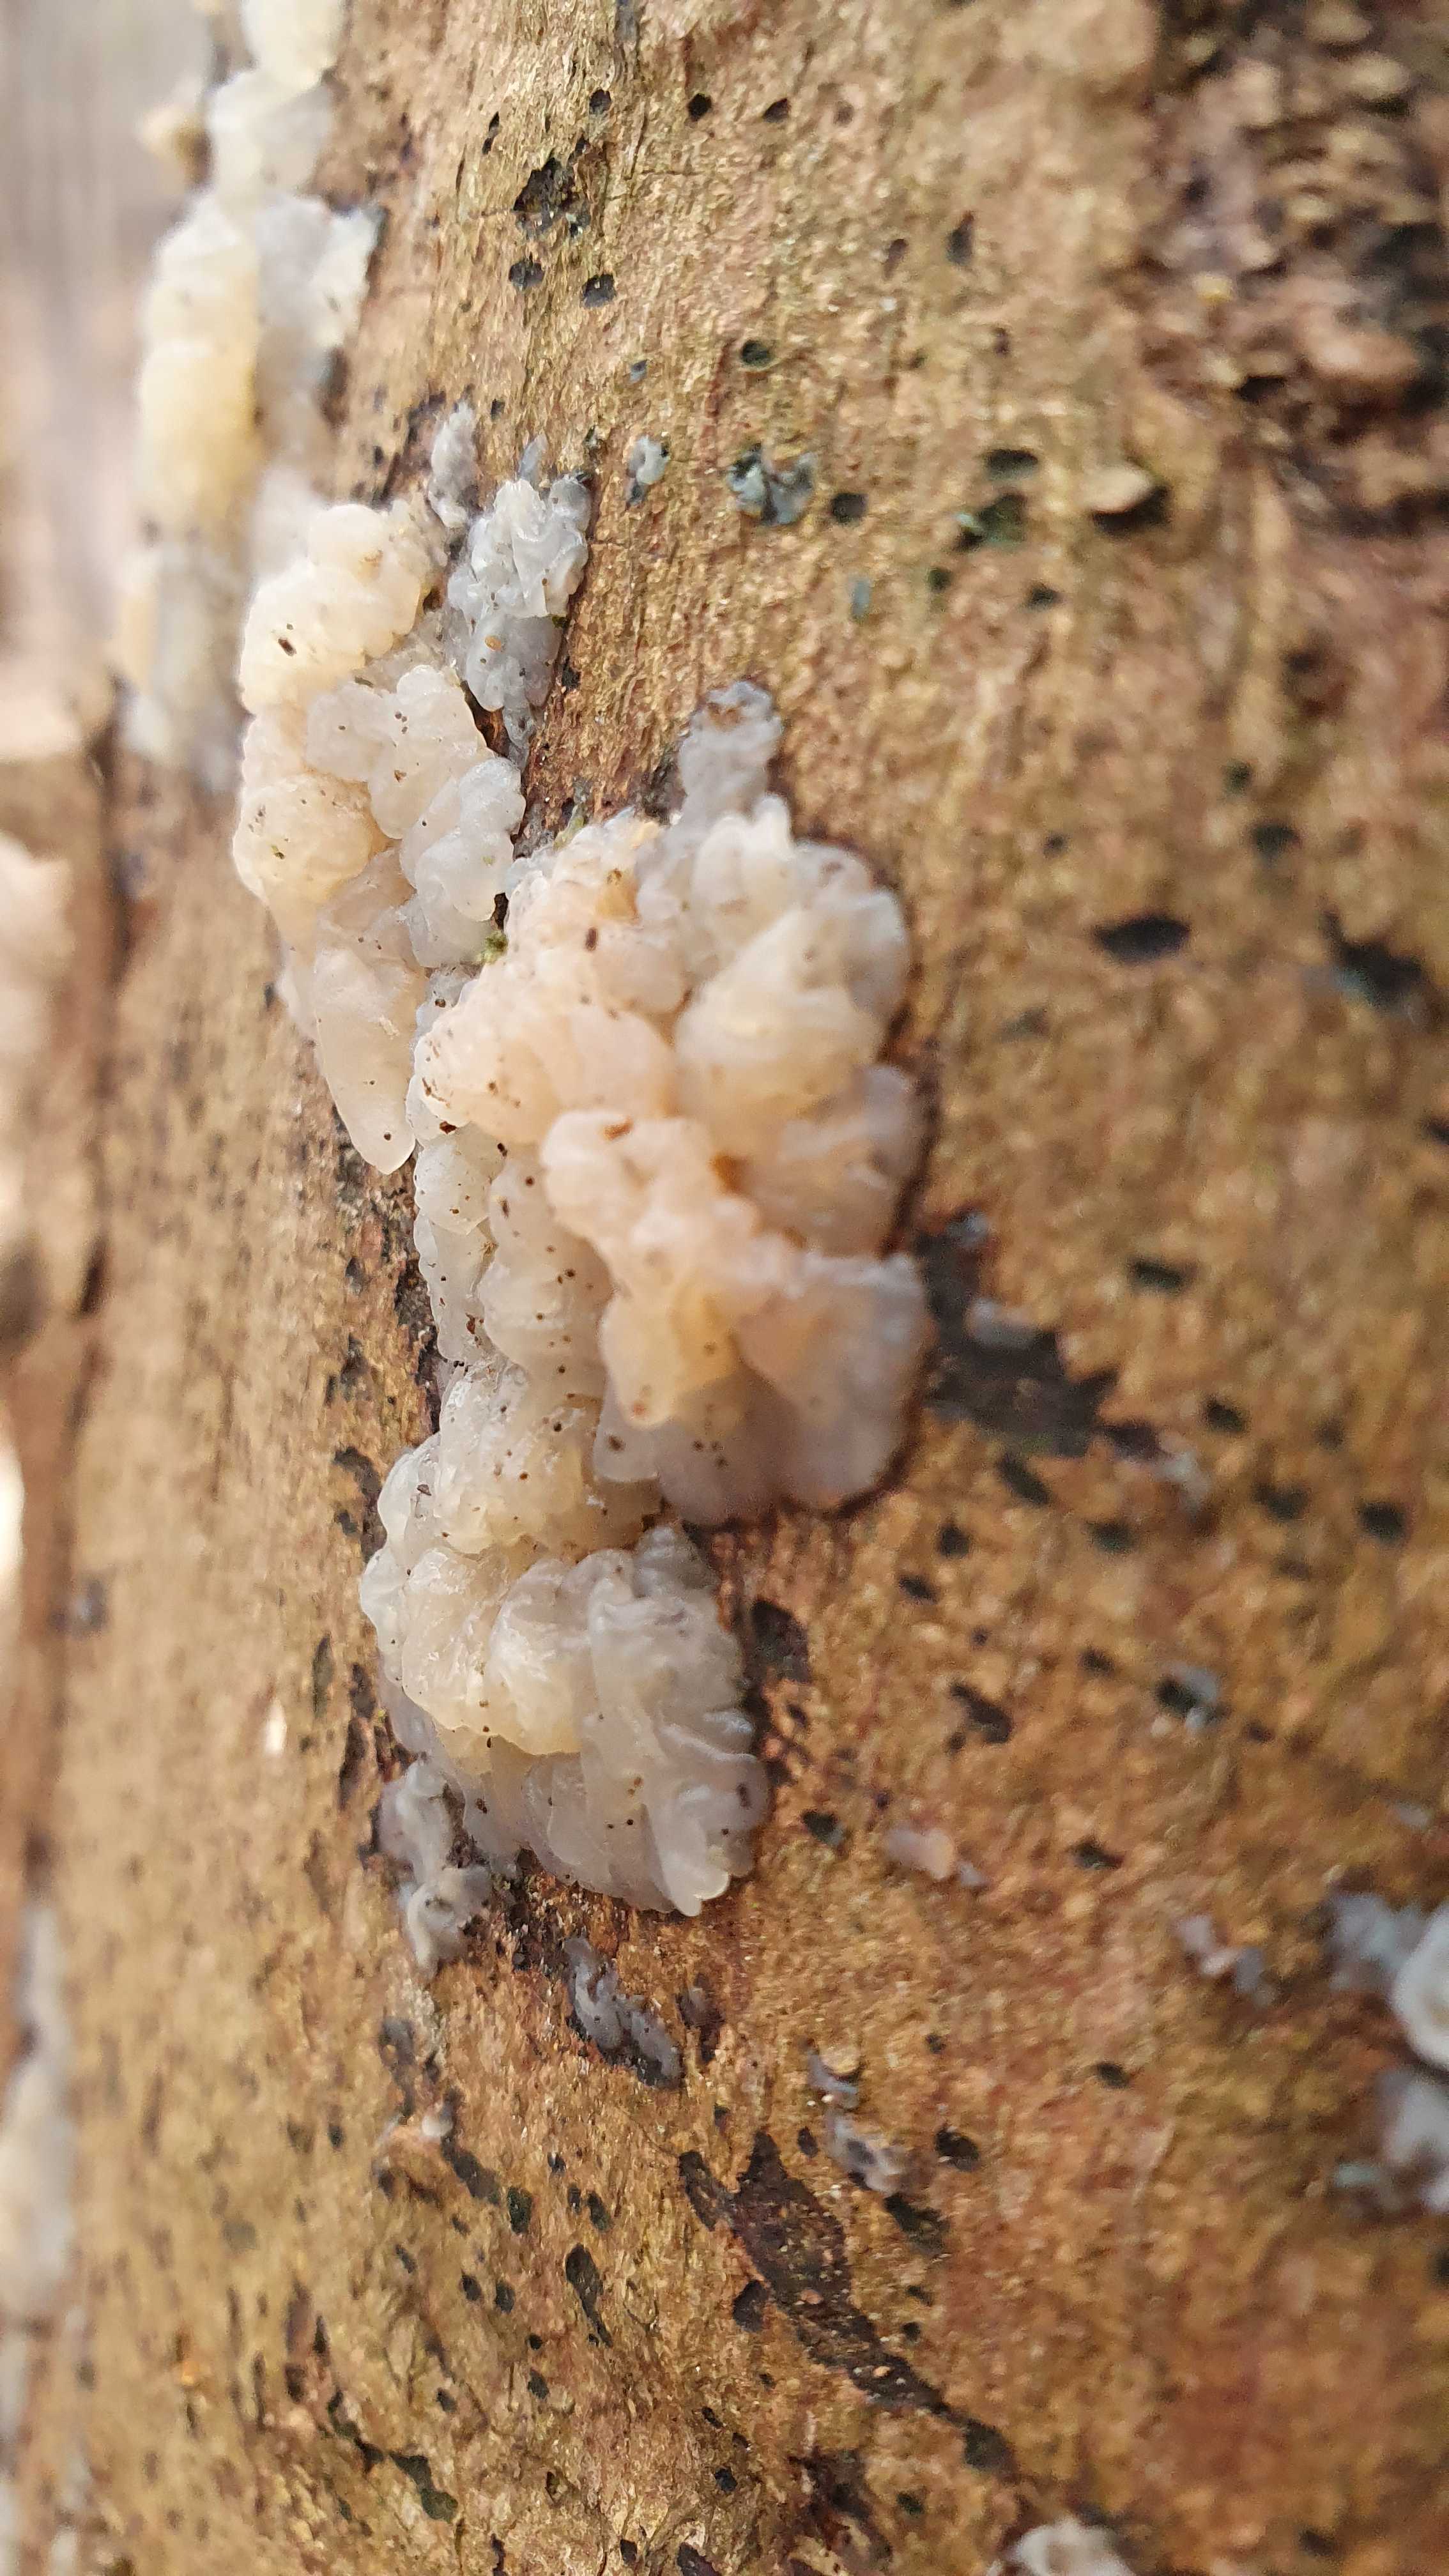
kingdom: Fungi
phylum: Basidiomycota
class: Agaricomycetes
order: Auriculariales
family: Auriculariaceae
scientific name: Auriculariaceae
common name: judasørefamilien
